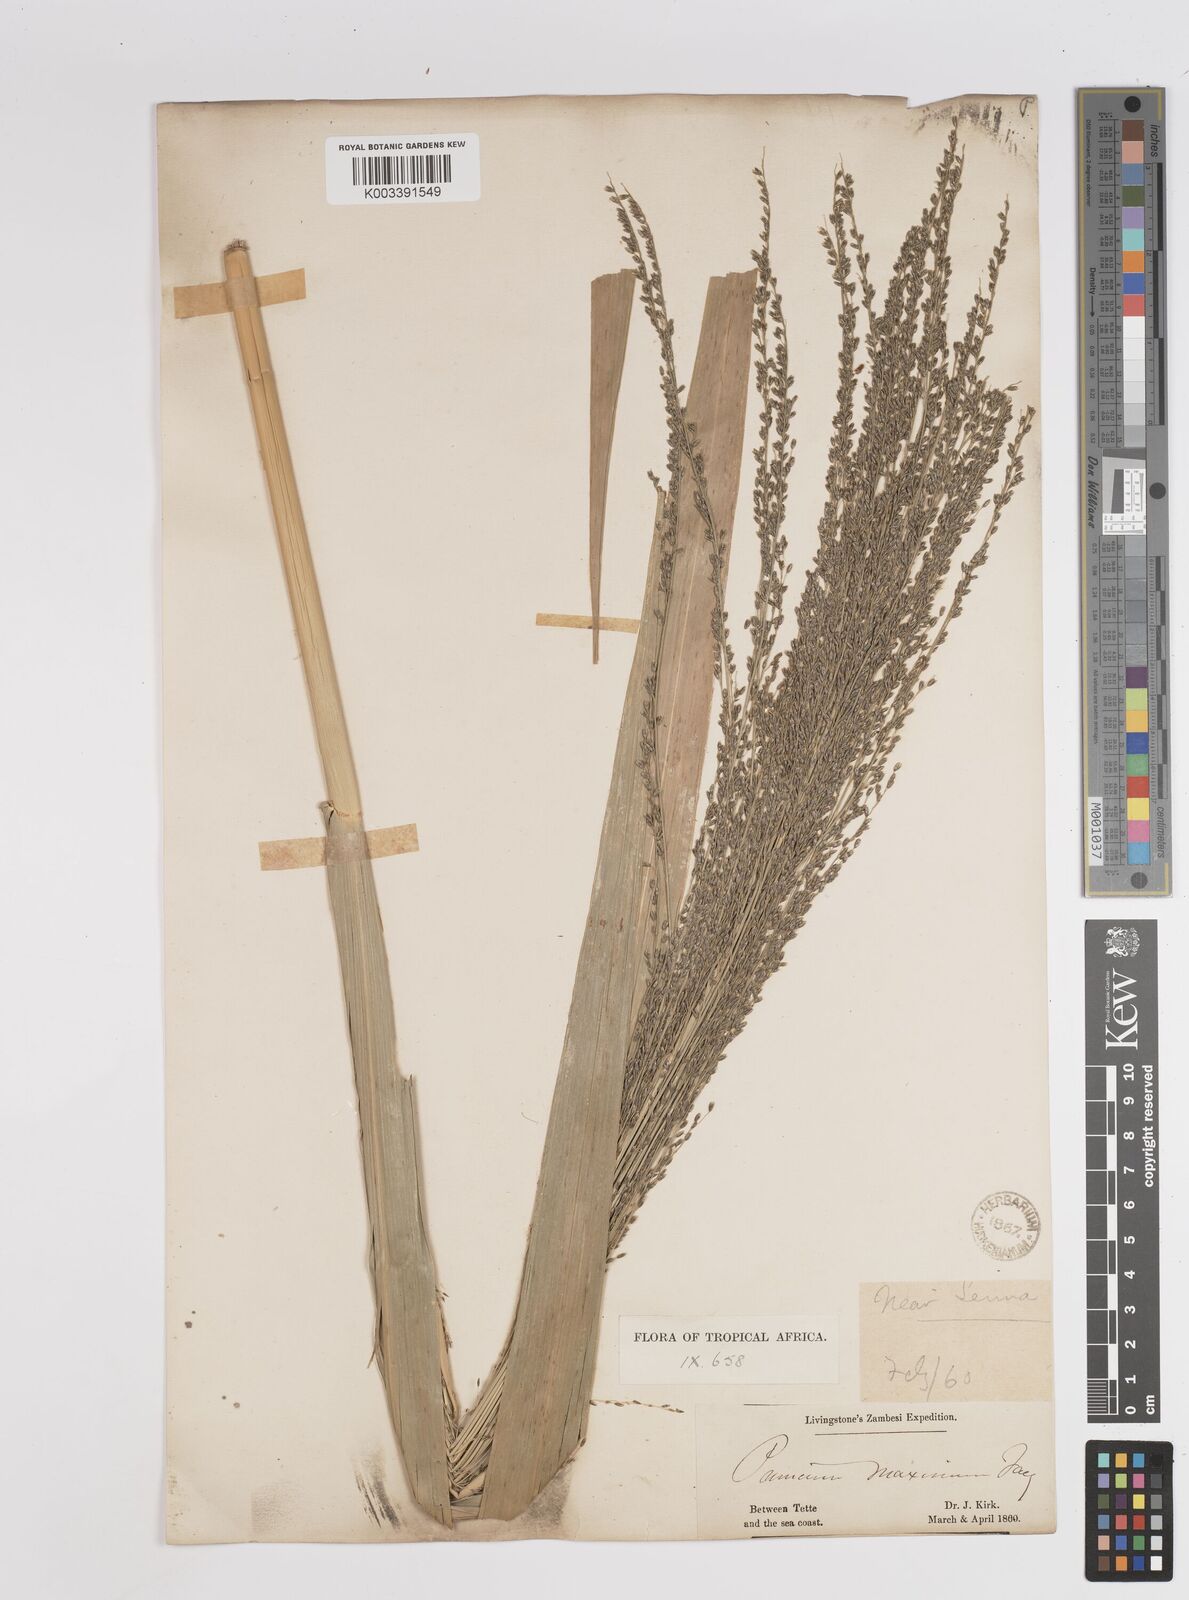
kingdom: Plantae
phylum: Tracheophyta
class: Liliopsida
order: Poales
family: Poaceae
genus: Megathyrsus
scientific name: Megathyrsus maximus
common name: Guineagrass
